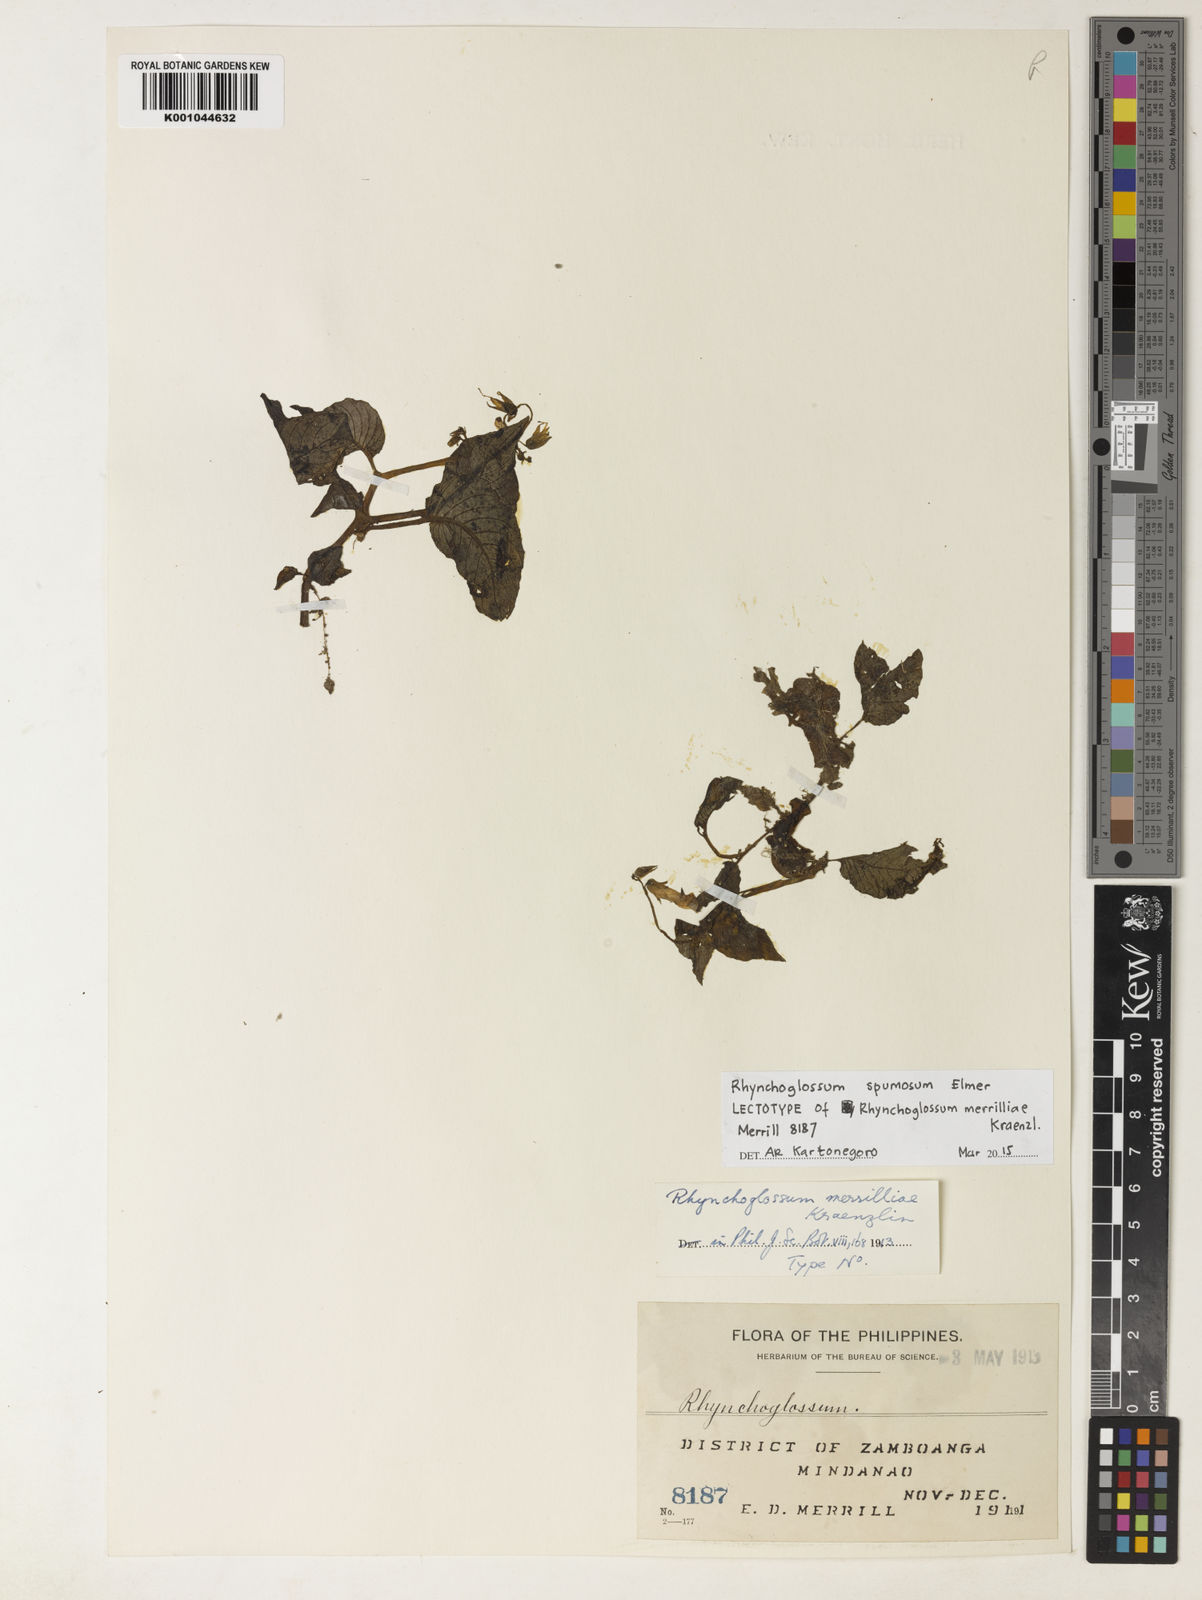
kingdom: Plantae
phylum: Tracheophyta
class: Magnoliopsida
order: Lamiales
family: Gesneriaceae
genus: Rhynchoglossum
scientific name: Rhynchoglossum spumosum
